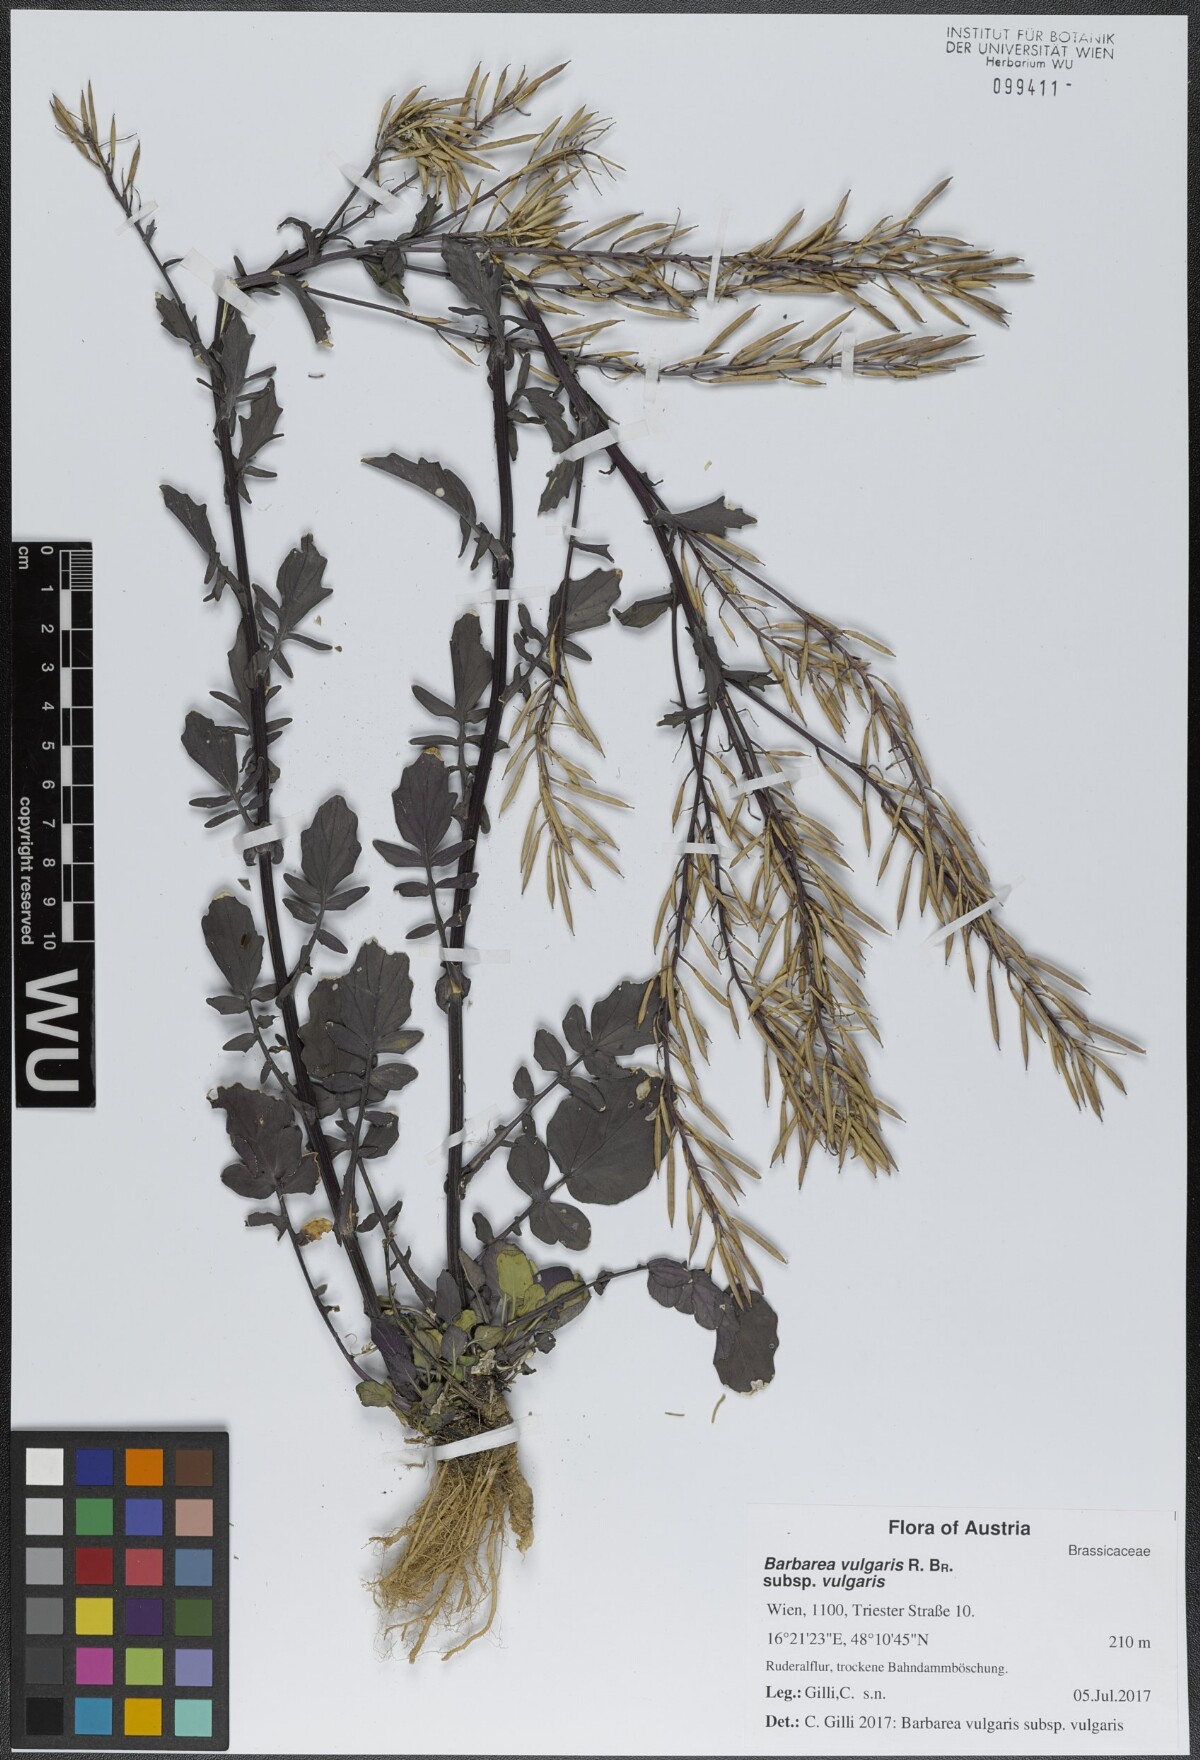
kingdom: Plantae
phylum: Tracheophyta
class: Magnoliopsida
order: Brassicales
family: Brassicaceae
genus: Barbarea
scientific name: Barbarea vulgaris
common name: Cressy-greens
